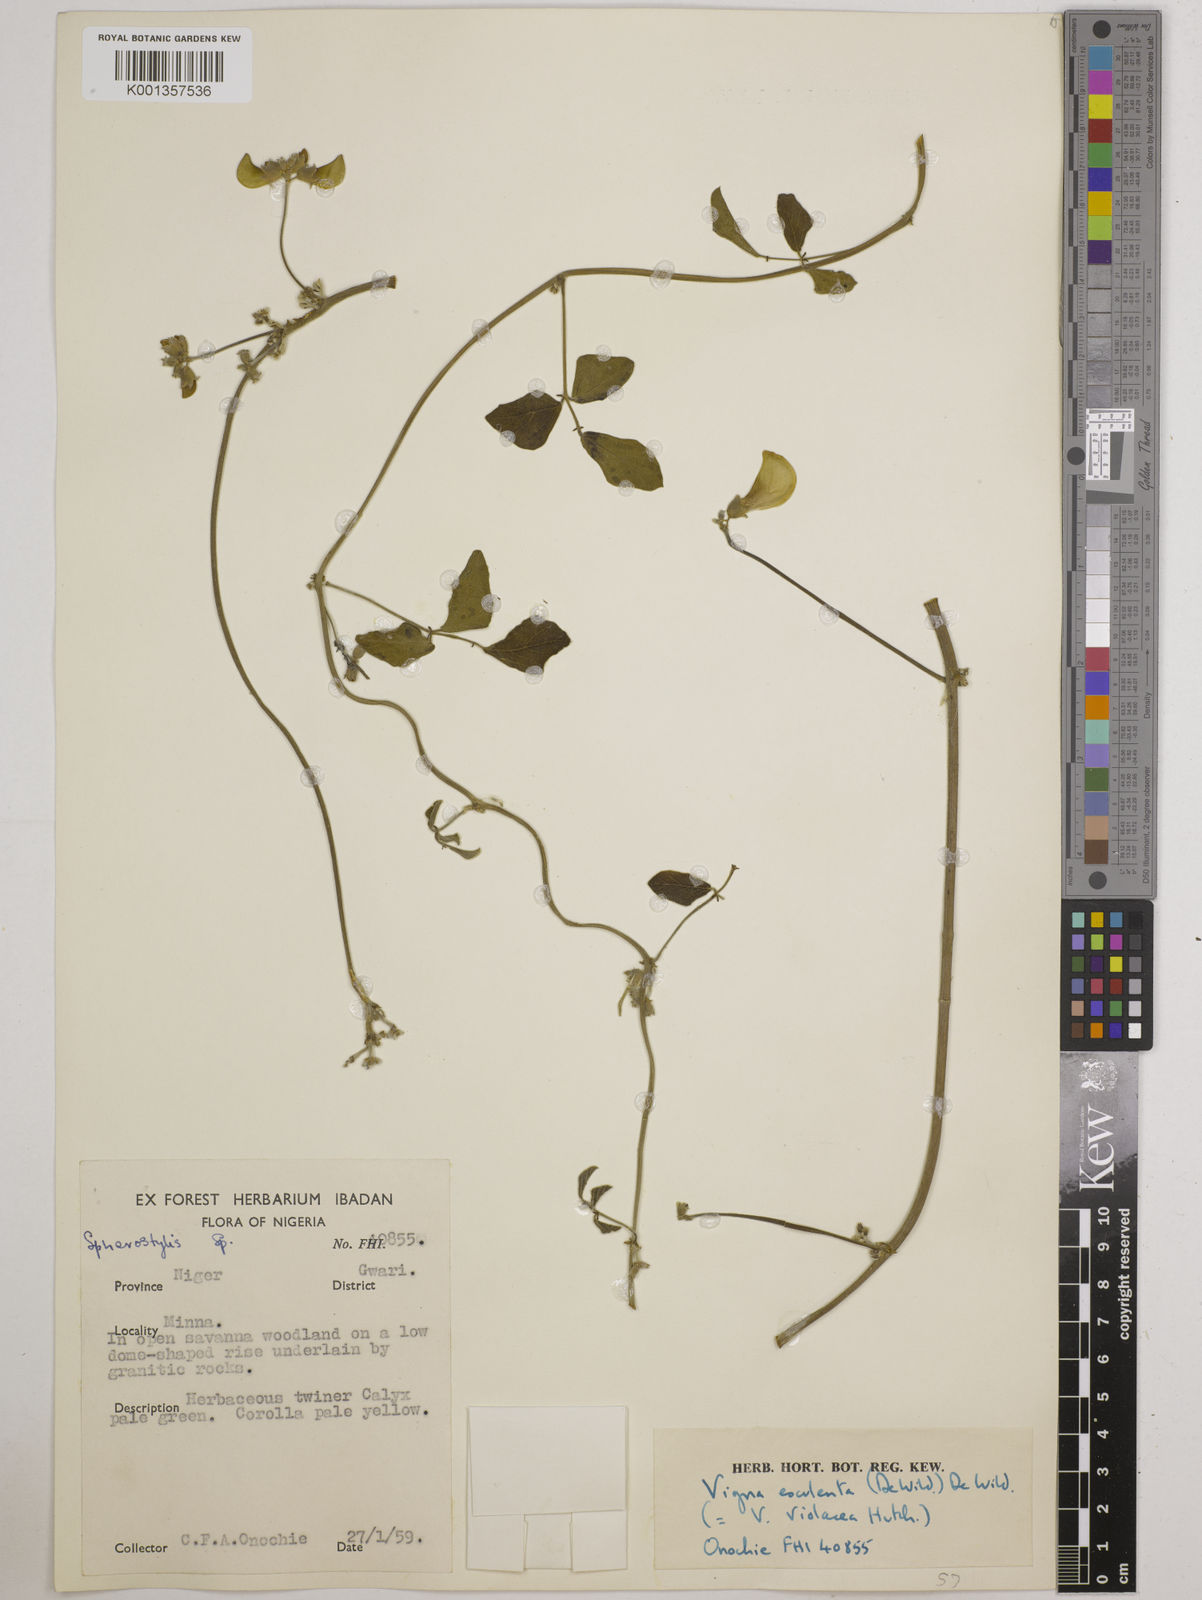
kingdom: Plantae
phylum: Tracheophyta
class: Magnoliopsida
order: Fabales
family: Fabaceae
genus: Vigna
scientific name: Vigna frutescens
